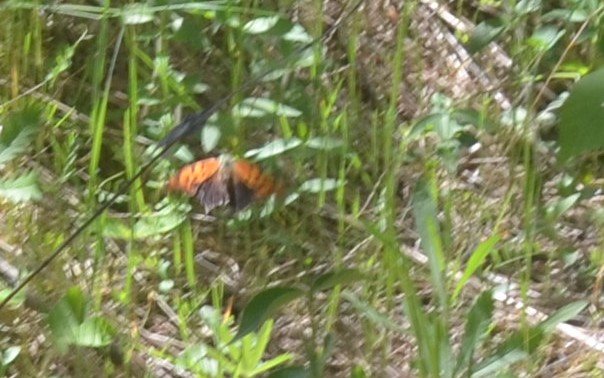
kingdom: Animalia
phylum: Arthropoda
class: Insecta
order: Lepidoptera
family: Nymphalidae
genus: Polygonia
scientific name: Polygonia interrogationis
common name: Question Mark
